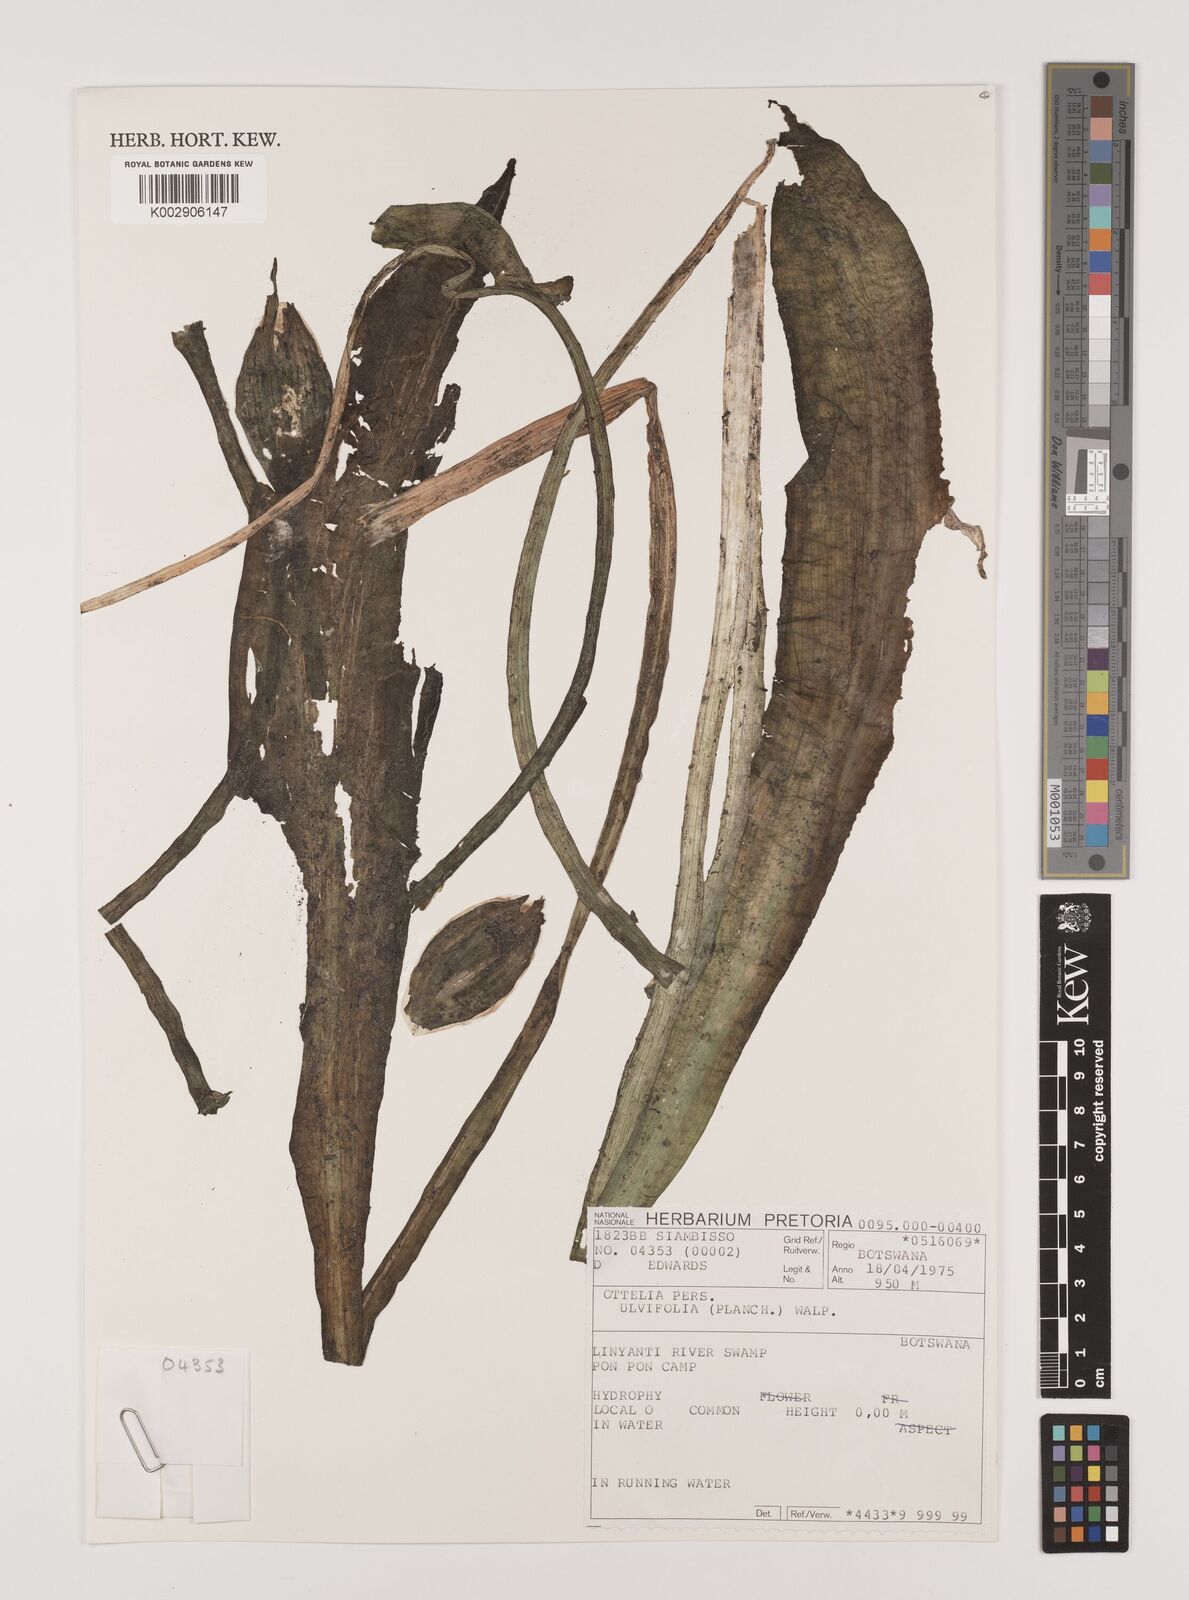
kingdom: Plantae
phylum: Tracheophyta
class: Liliopsida
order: Alismatales
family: Hydrocharitaceae
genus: Ottelia
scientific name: Ottelia ulvifolia
